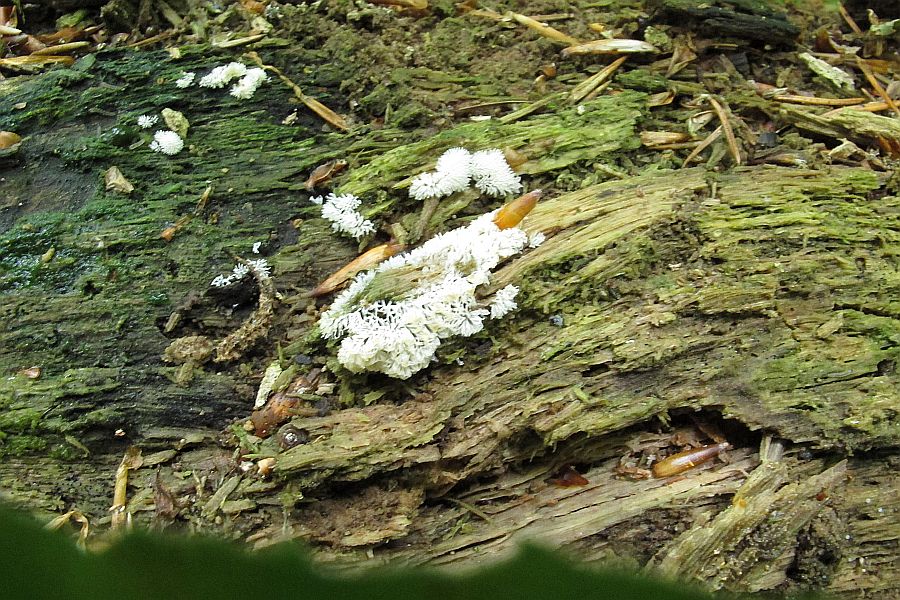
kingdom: Protozoa
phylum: Mycetozoa
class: Protosteliomycetes
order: Ceratiomyxales
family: Ceratiomyxaceae
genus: Ceratiomyxa
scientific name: Ceratiomyxa fruticulosa
